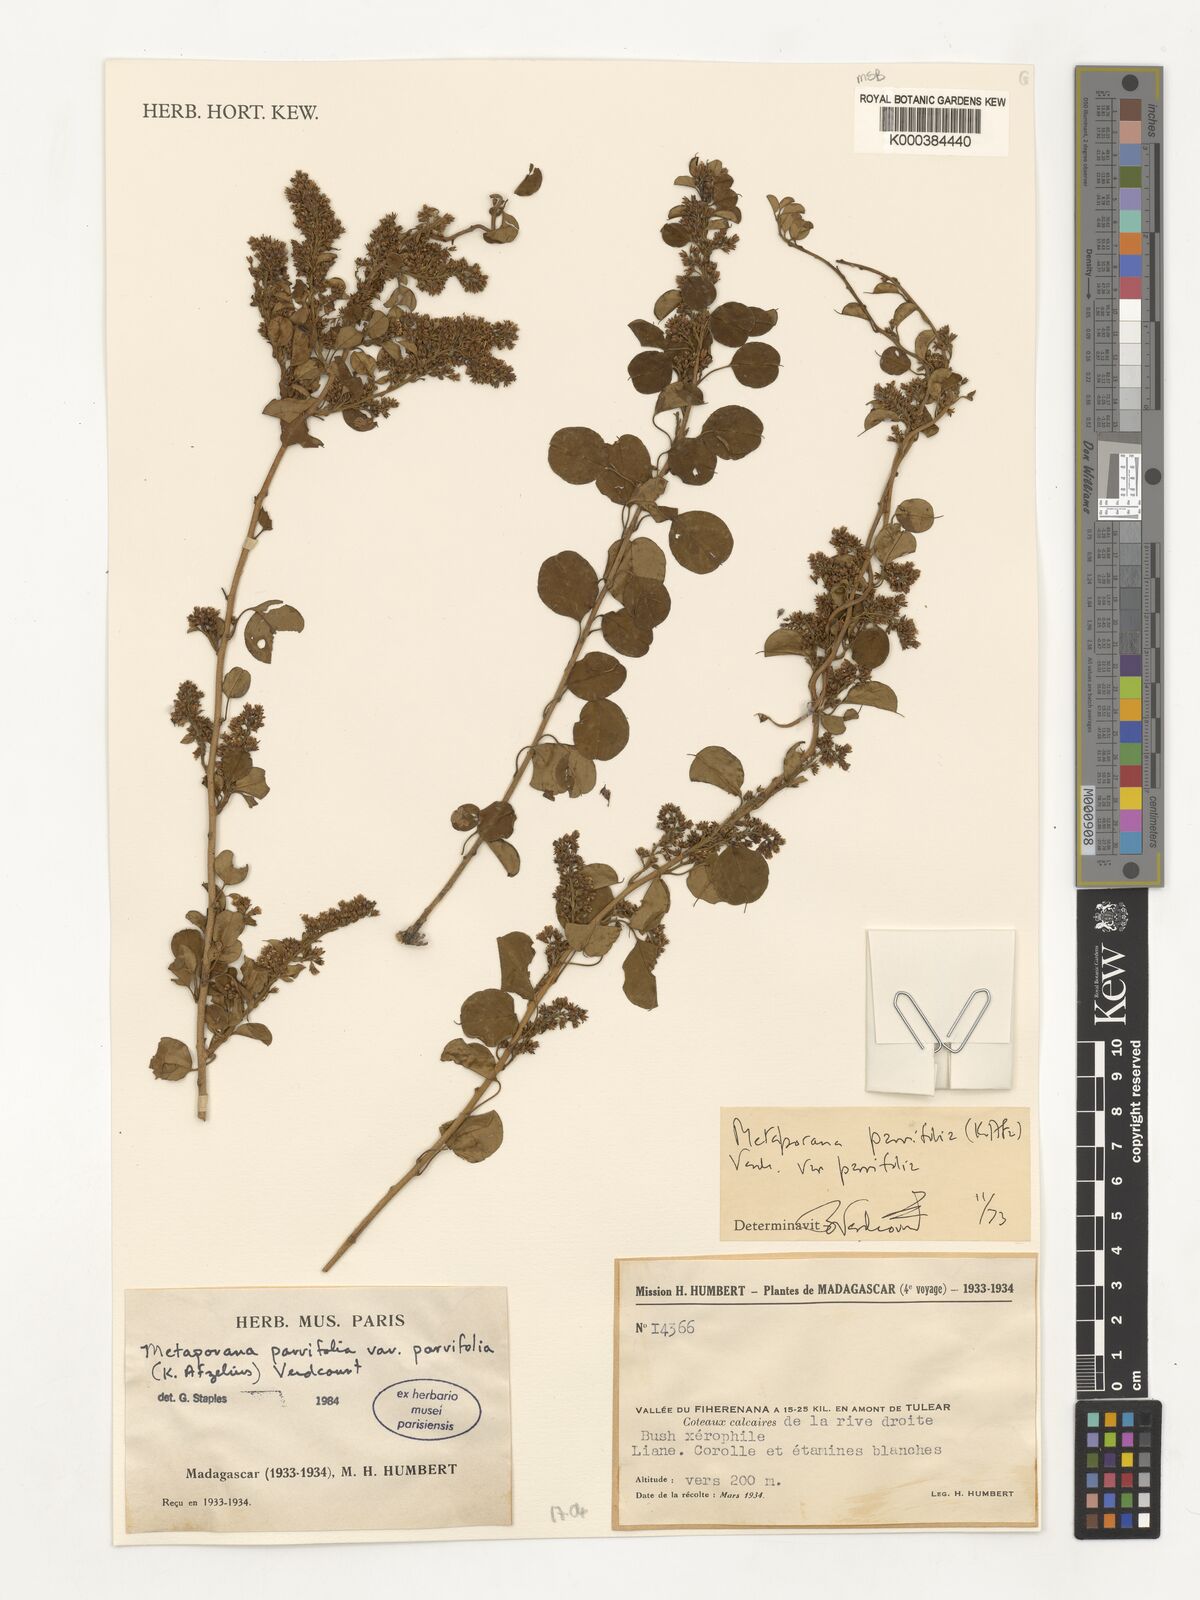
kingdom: Plantae
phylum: Tracheophyta
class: Magnoliopsida
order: Solanales
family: Convolvulaceae
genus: Metaporana
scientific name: Metaporana parvifolia
